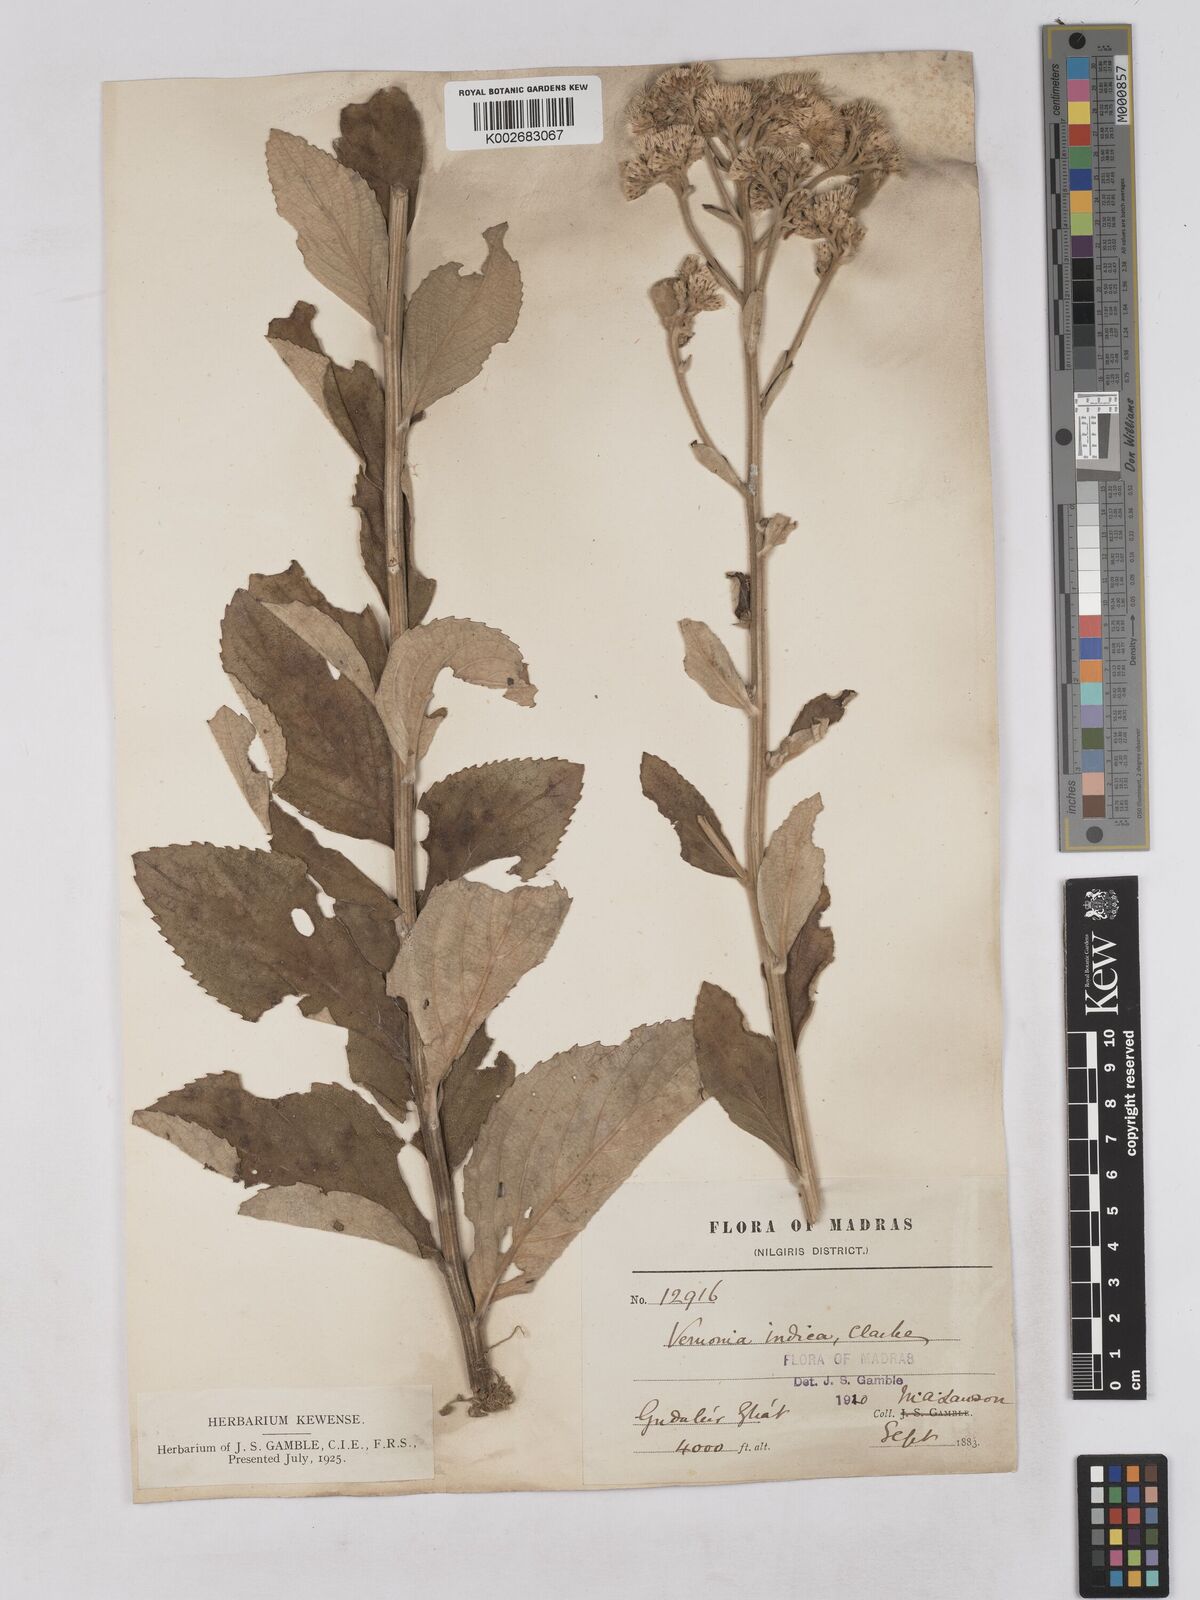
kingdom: Plantae
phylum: Tracheophyta
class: Magnoliopsida
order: Asterales
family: Asteraceae
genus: Acilepis
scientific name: Acilepis dendigulensis
